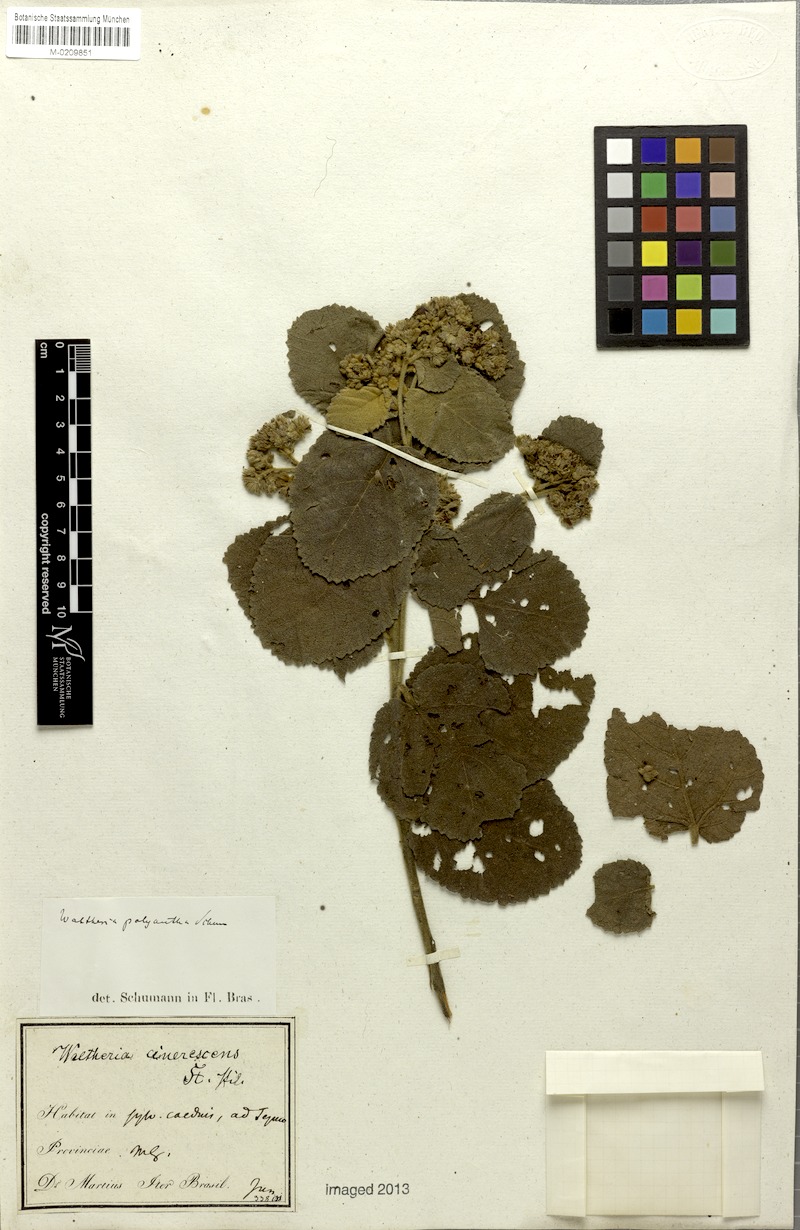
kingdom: Plantae
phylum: Tracheophyta
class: Magnoliopsida
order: Malvales
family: Malvaceae
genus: Waltheria
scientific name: Waltheria polyantha
